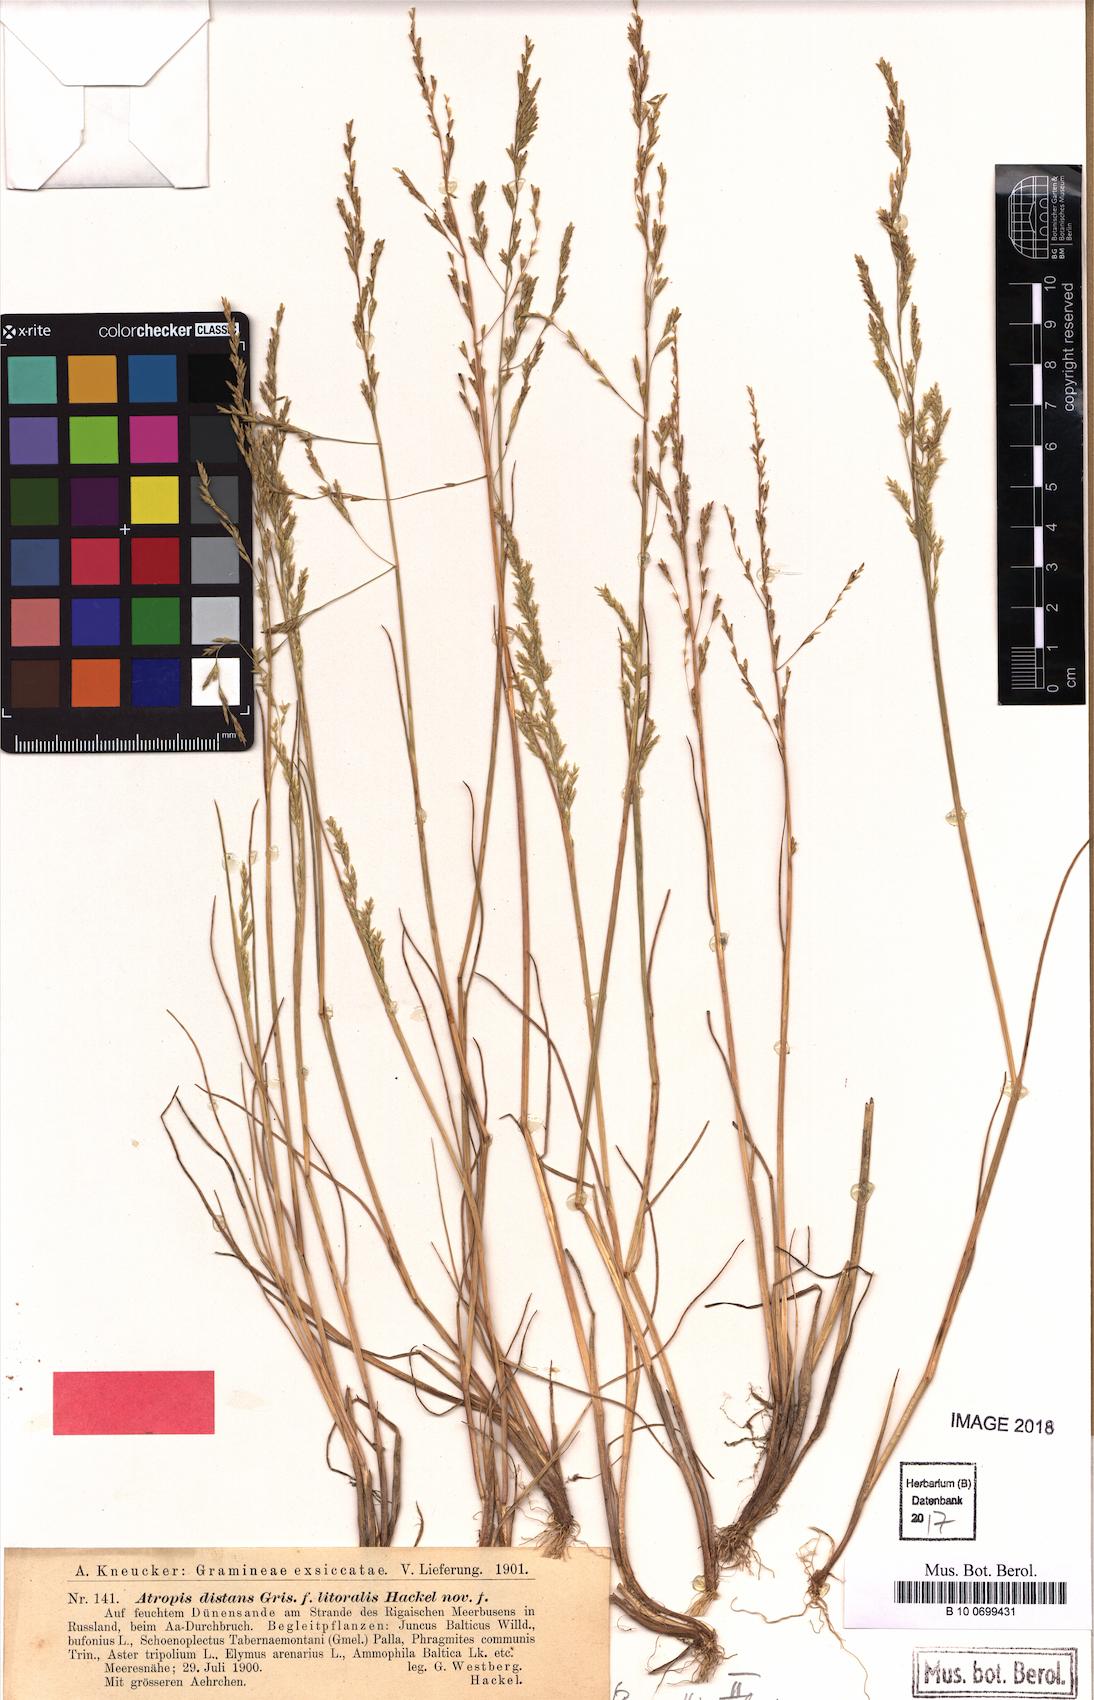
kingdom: Plantae
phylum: Tracheophyta
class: Liliopsida
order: Poales
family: Poaceae
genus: Puccinellia
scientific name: Puccinellia distans
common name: Weeping alkaligrass
